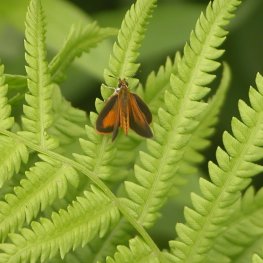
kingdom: Animalia
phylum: Arthropoda
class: Insecta
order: Lepidoptera
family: Hesperiidae
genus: Ancyloxypha
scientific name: Ancyloxypha numitor
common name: Least Skipper
